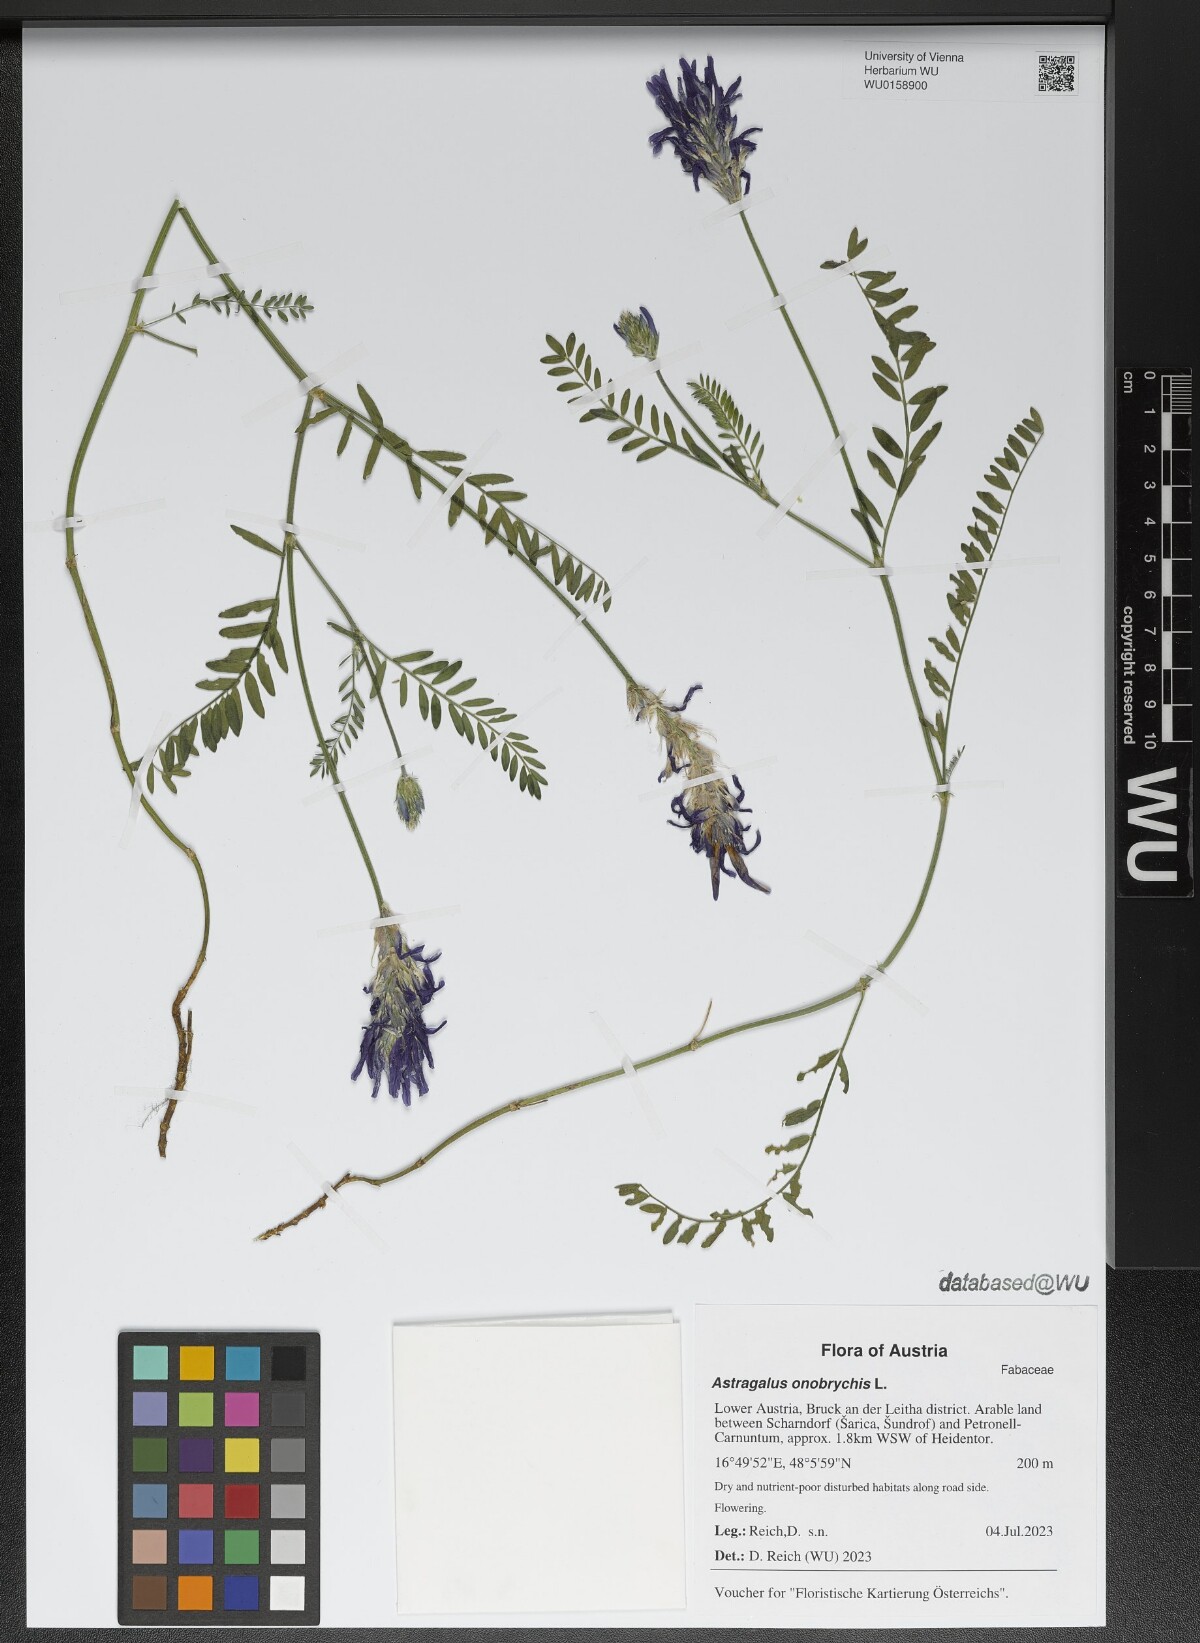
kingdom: Plantae
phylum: Tracheophyta
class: Magnoliopsida
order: Fabales
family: Fabaceae
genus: Astragalus
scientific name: Astragalus onobrychis
